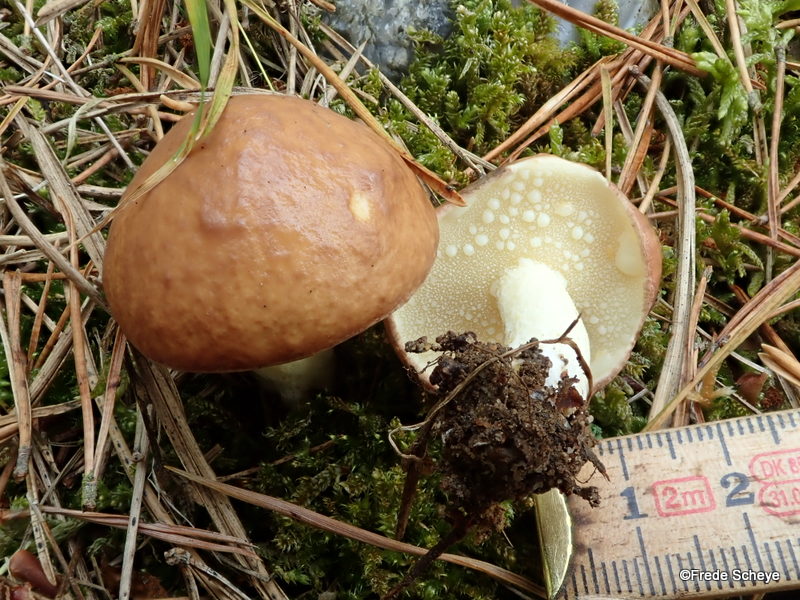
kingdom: Fungi
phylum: Basidiomycota
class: Agaricomycetes
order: Boletales
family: Suillaceae
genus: Suillus
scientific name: Suillus granulatus
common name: kornet slimrørhat
